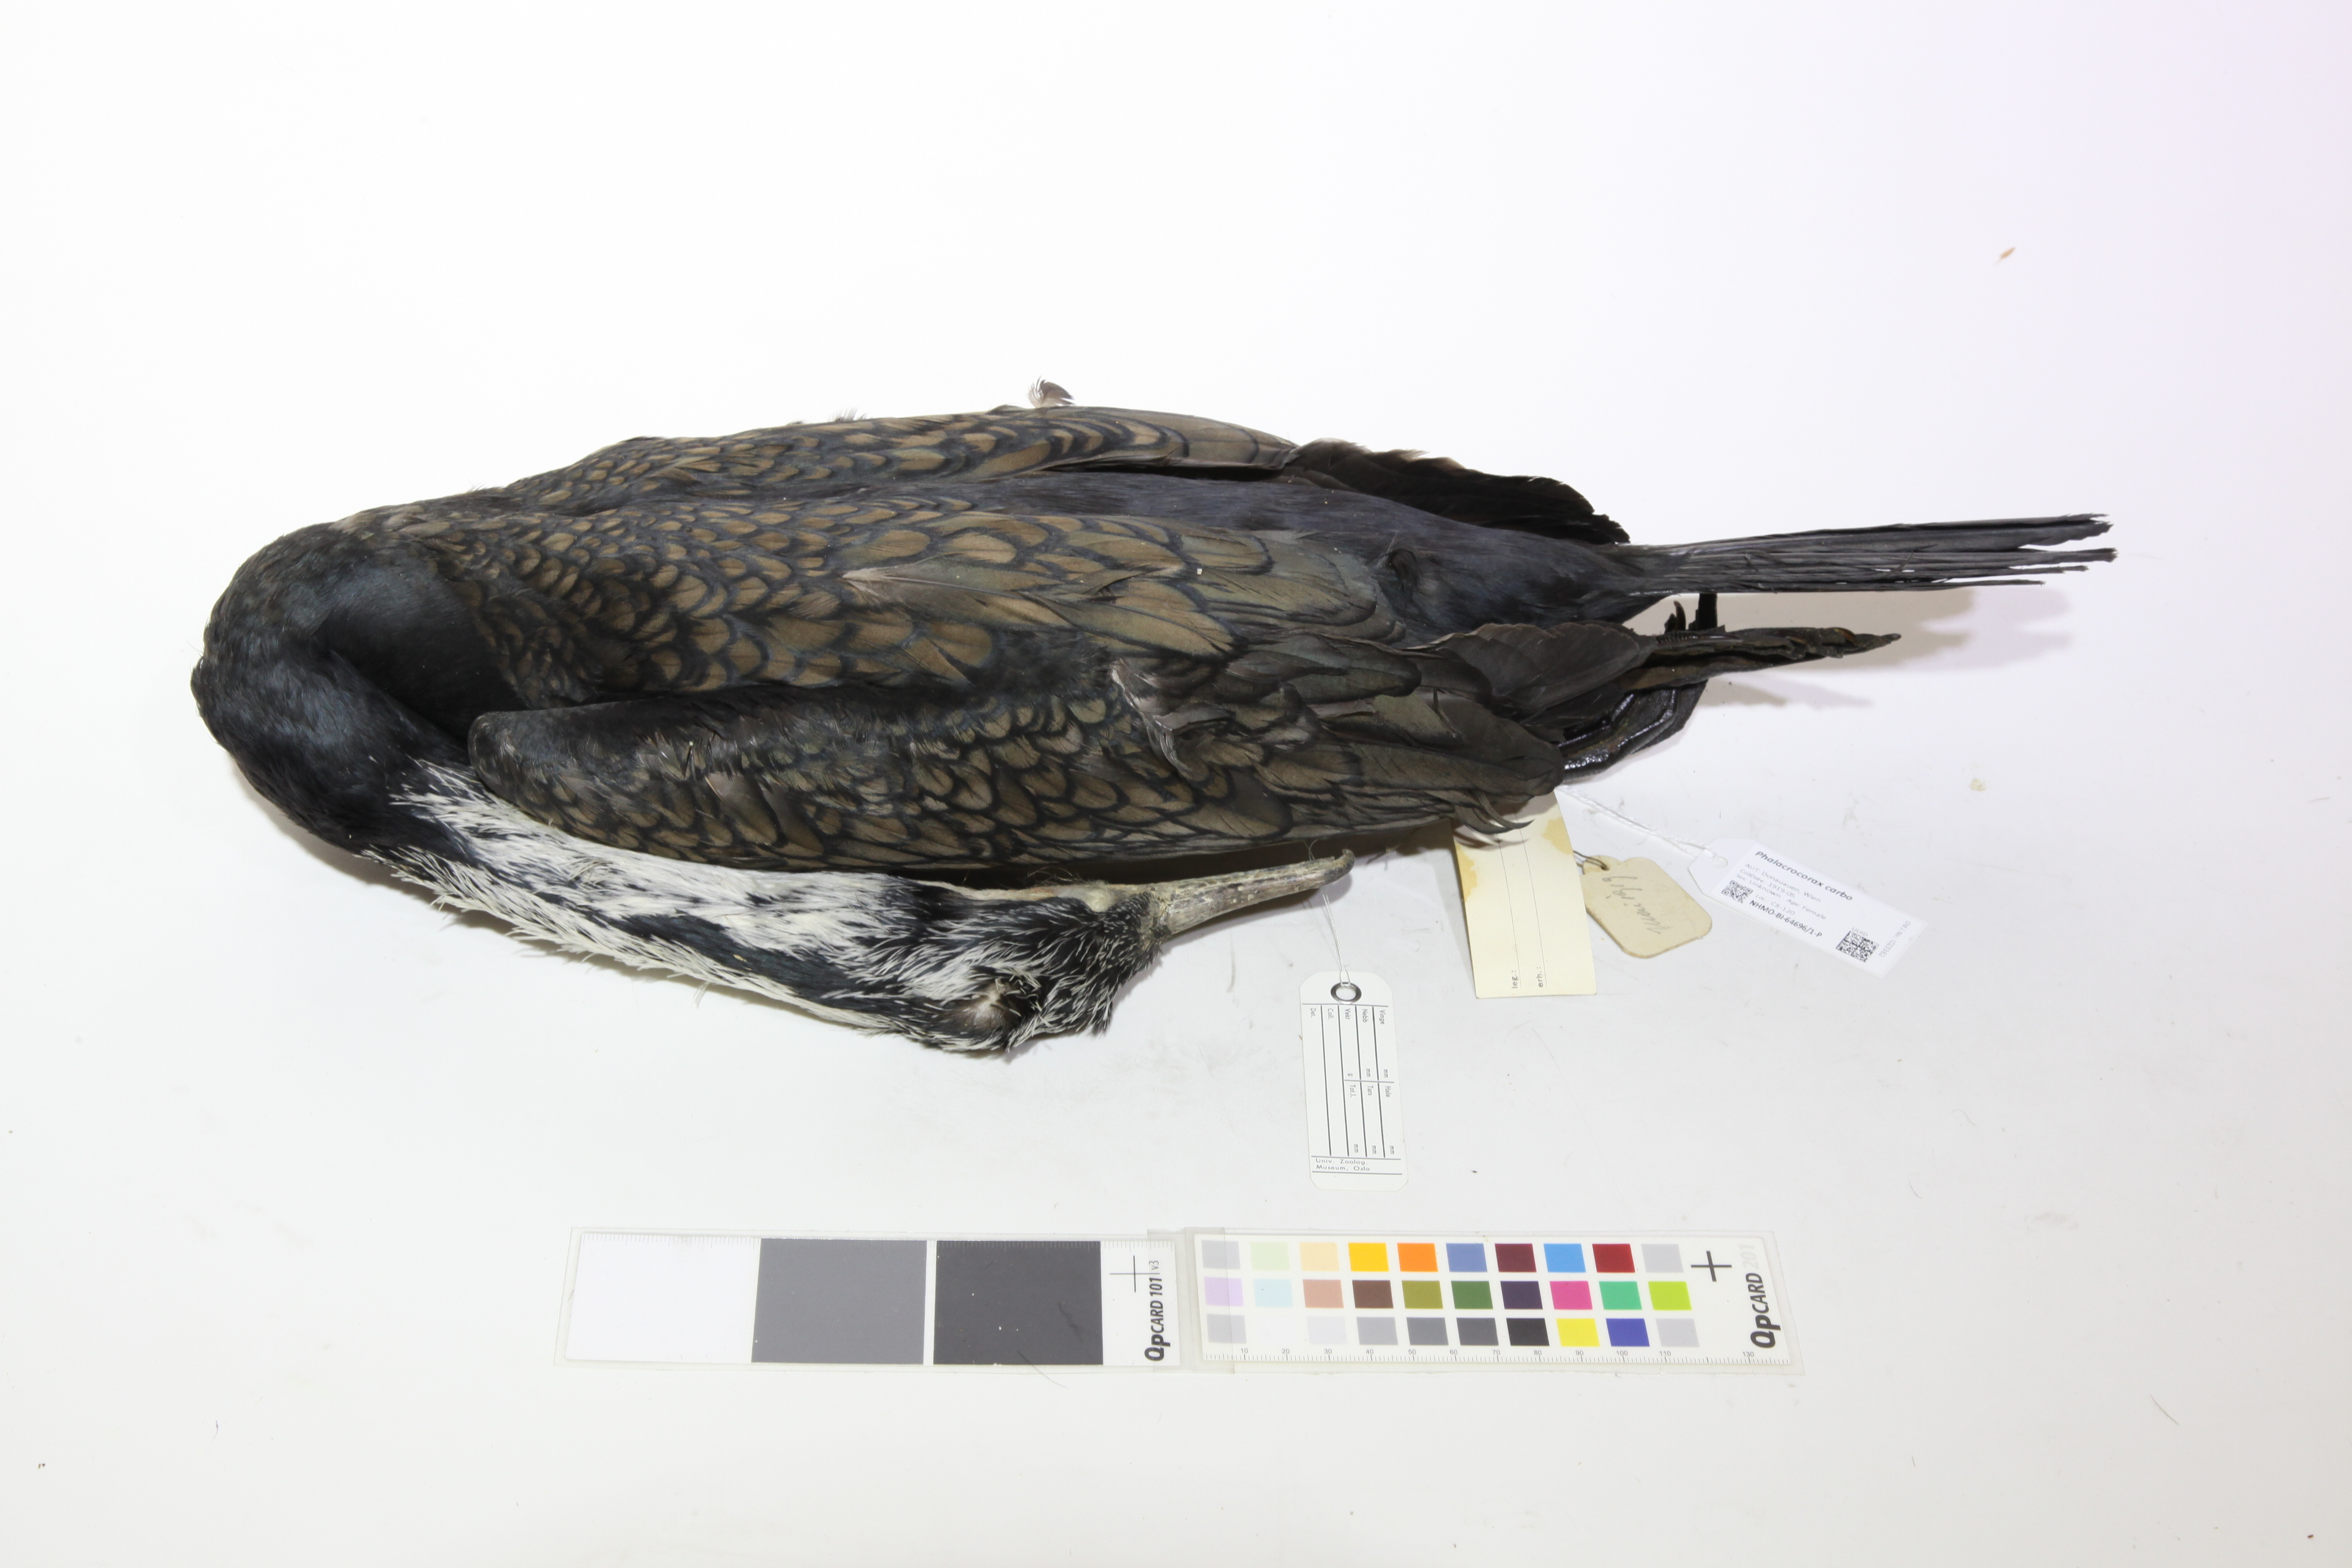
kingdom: Animalia
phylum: Chordata
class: Aves
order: Suliformes
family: Phalacrocoracidae
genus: Phalacrocorax
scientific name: Phalacrocorax carbo
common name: Great cormorant
